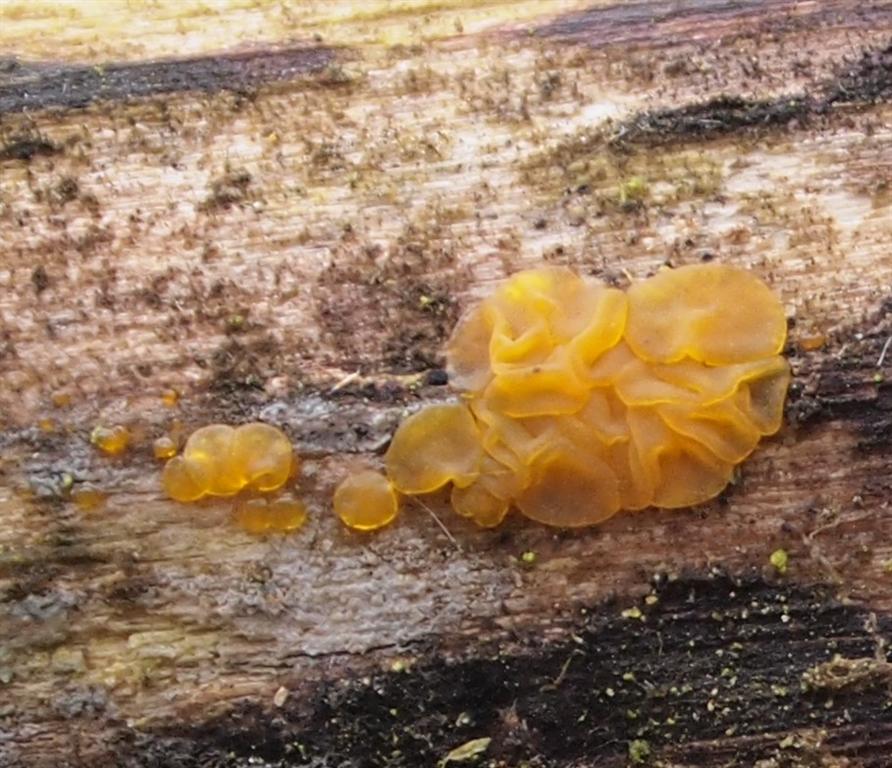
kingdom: Fungi
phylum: Basidiomycota
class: Dacrymycetes
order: Dacrymycetales
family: Dacrymycetaceae
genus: Dacrymyces
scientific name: Dacrymyces lacrymalis
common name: rynket tåresvamp
